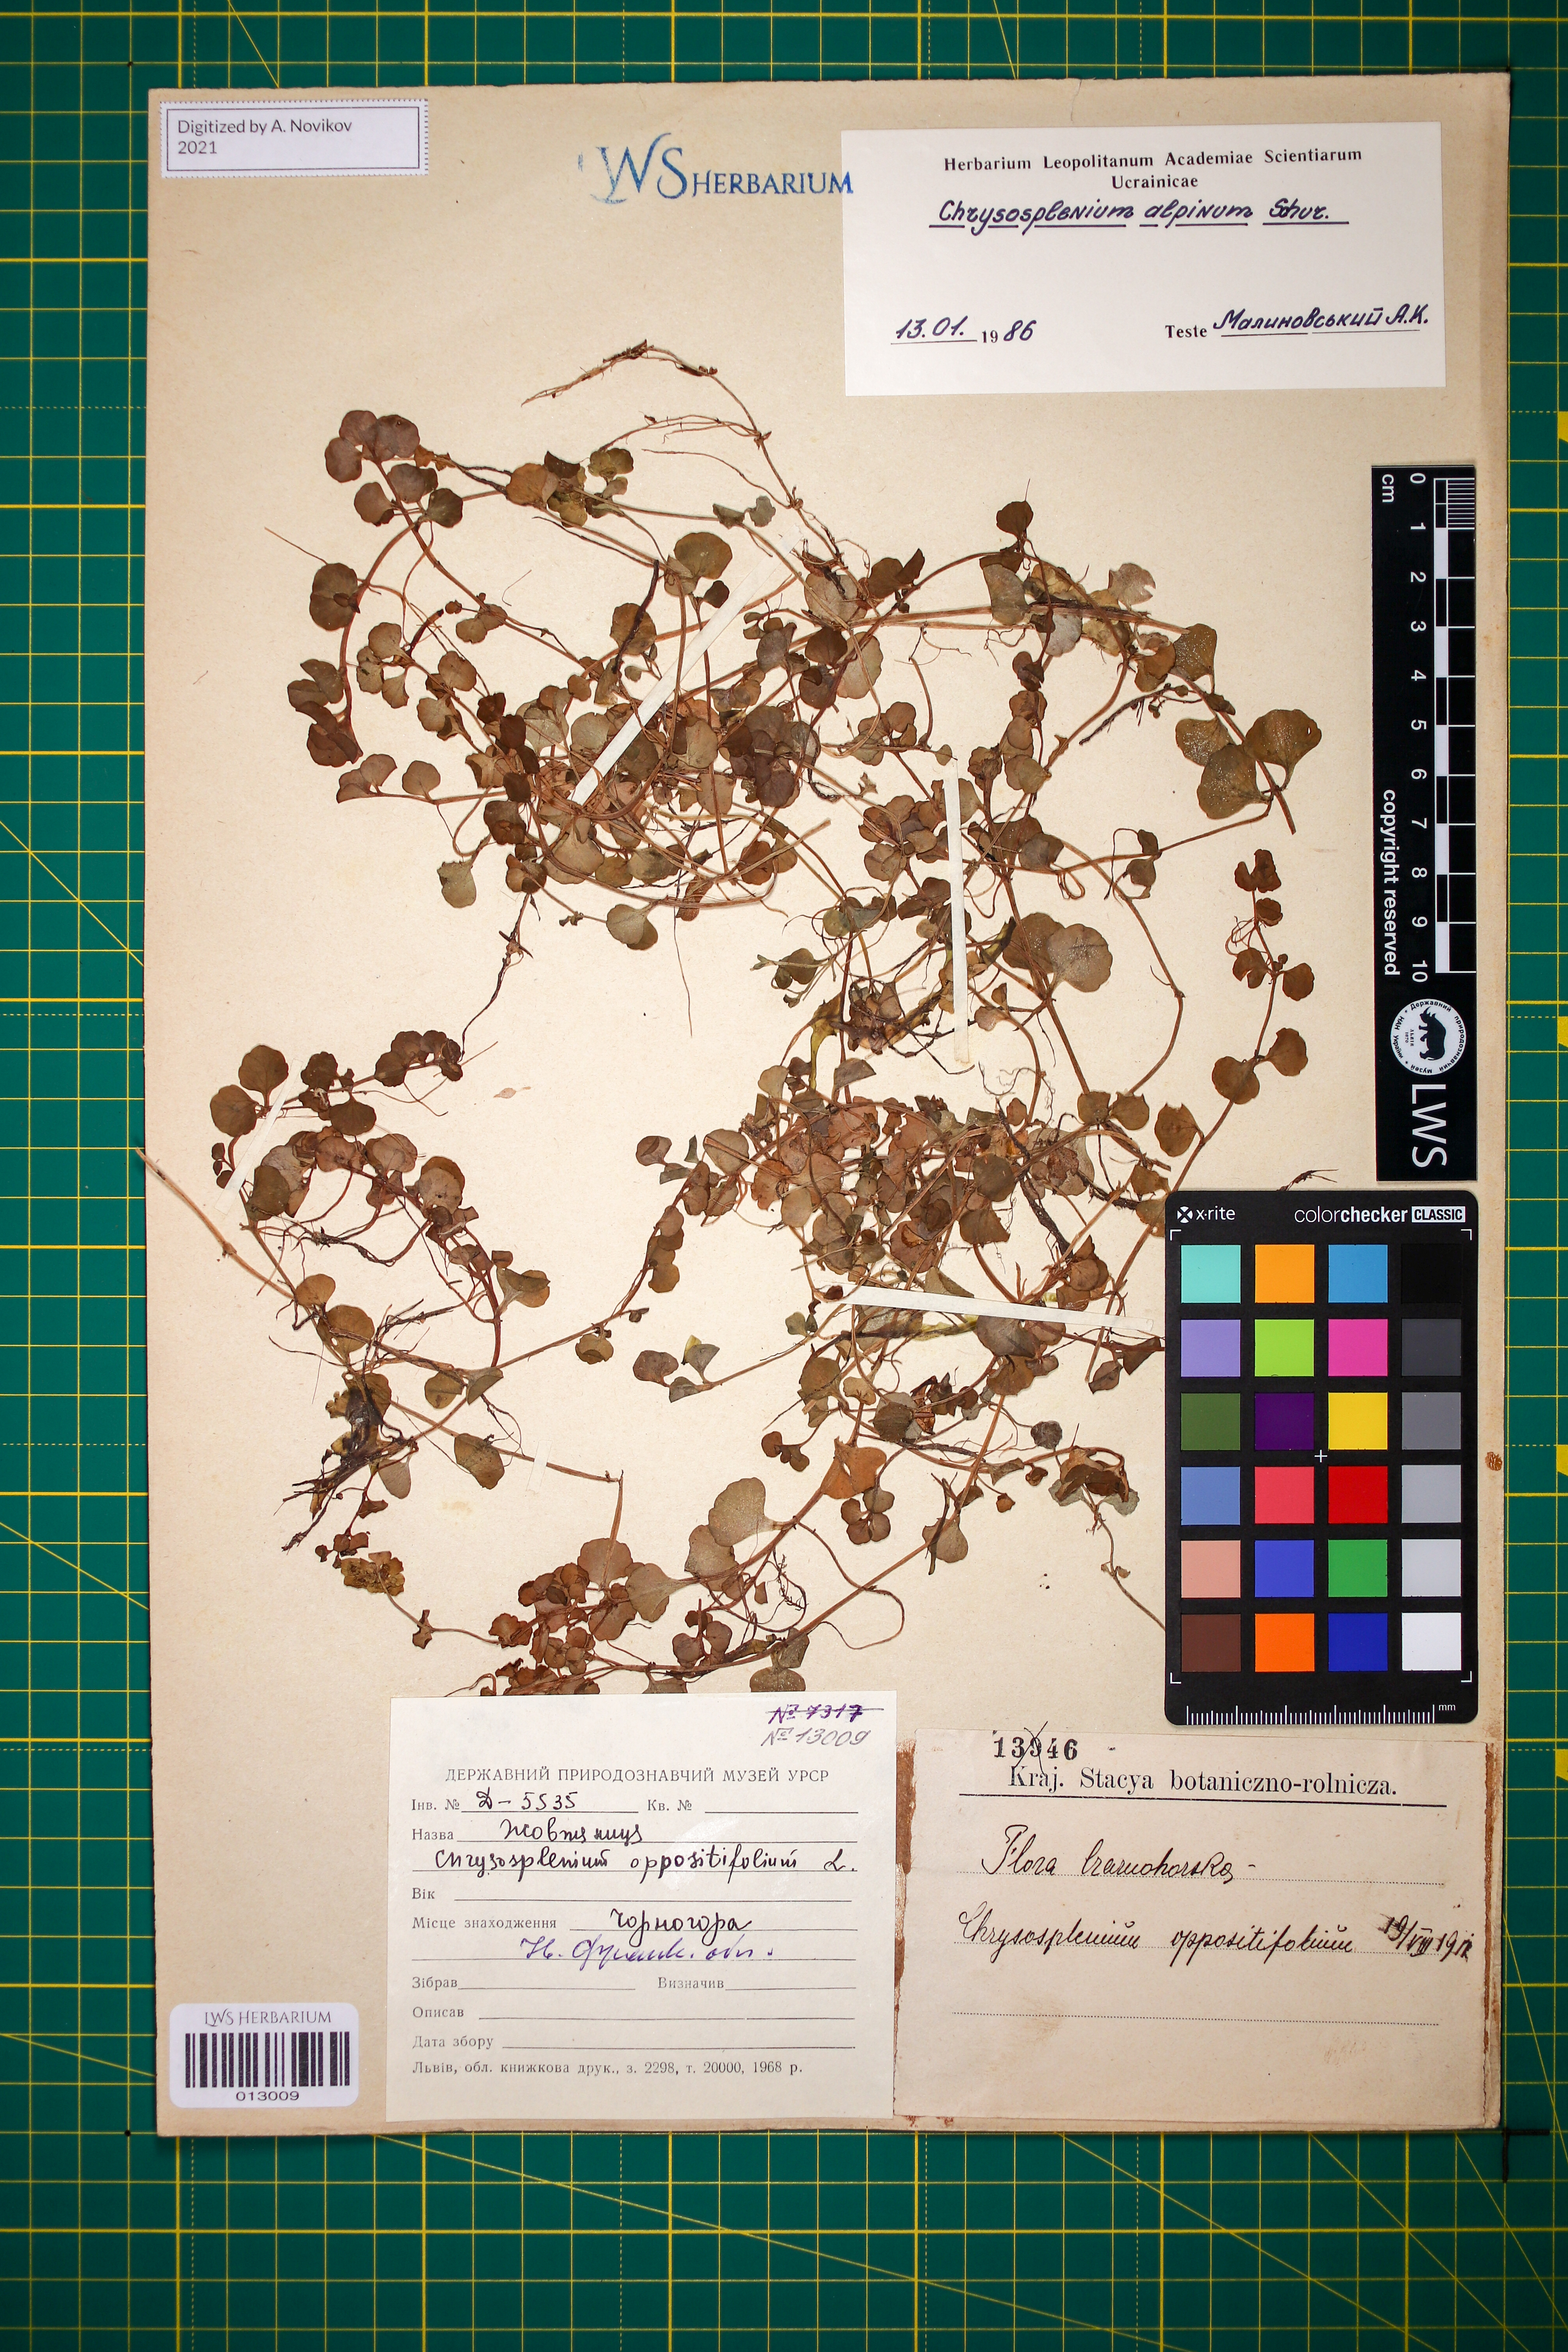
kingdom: Plantae
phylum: Tracheophyta
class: Magnoliopsida
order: Saxifragales
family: Saxifragaceae
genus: Chrysosplenium
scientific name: Chrysosplenium alpinum
